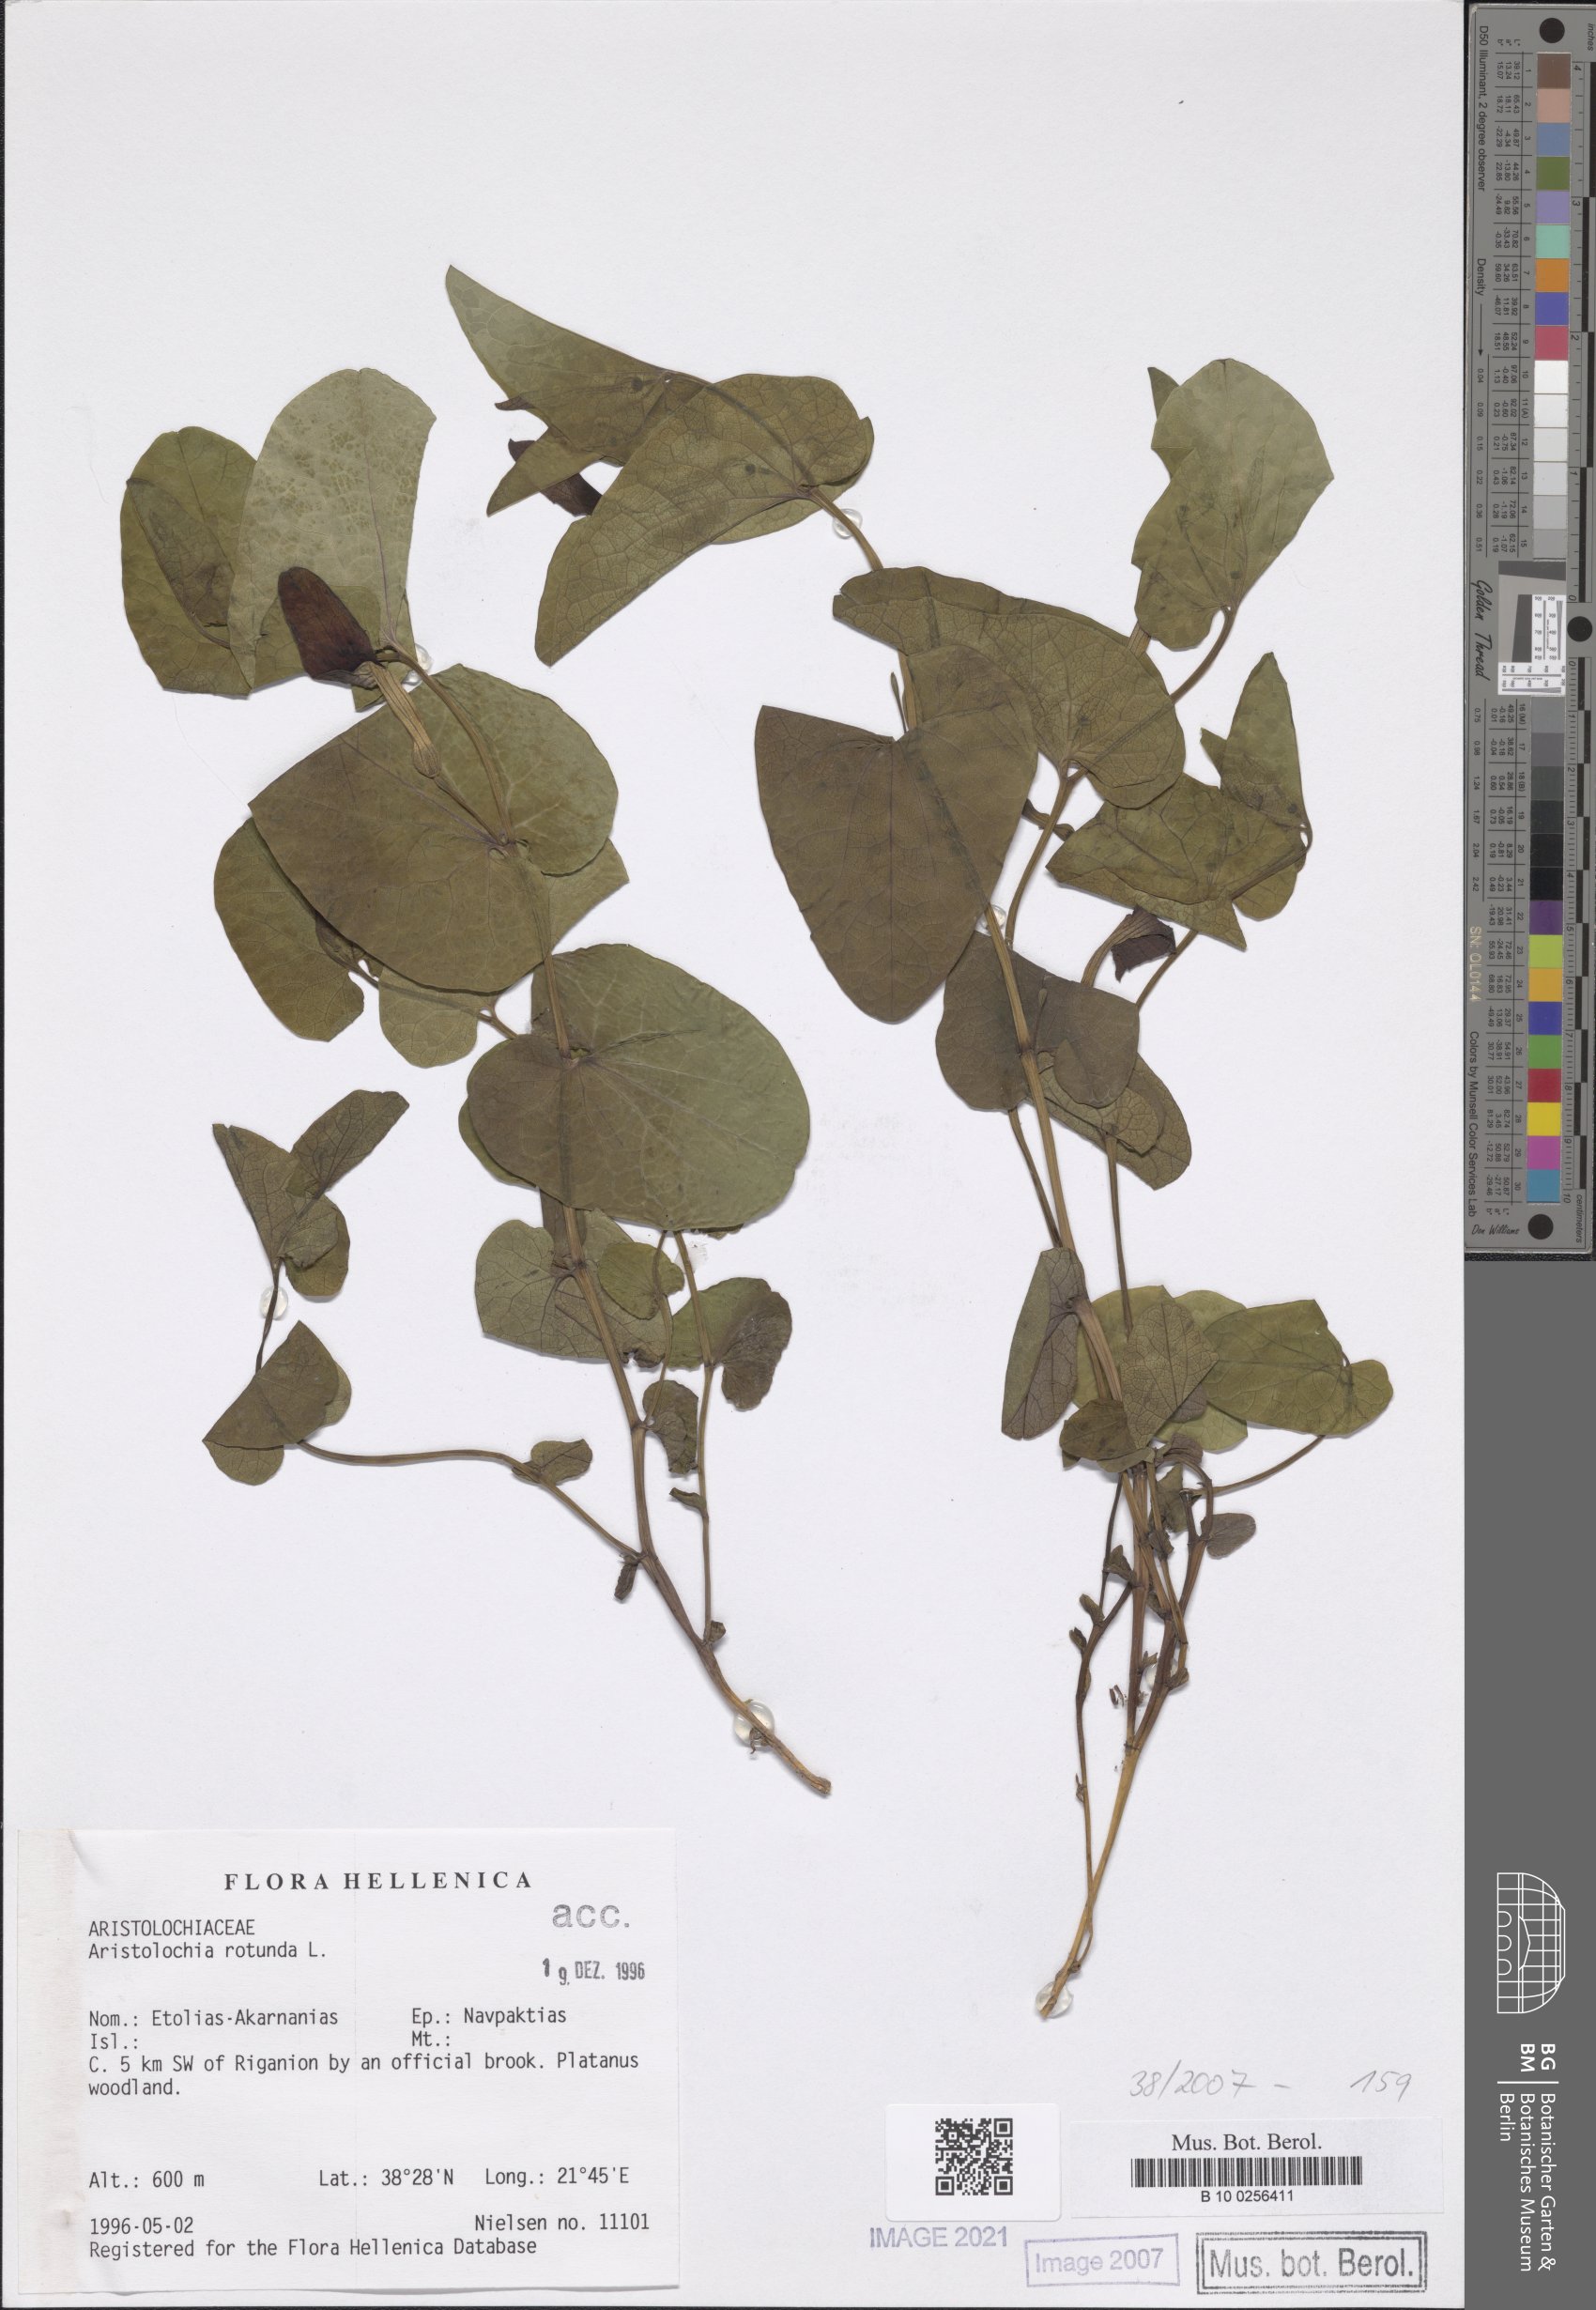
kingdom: Plantae
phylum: Tracheophyta
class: Magnoliopsida
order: Piperales
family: Aristolochiaceae
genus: Aristolochia
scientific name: Aristolochia rotunda
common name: Smearwort
